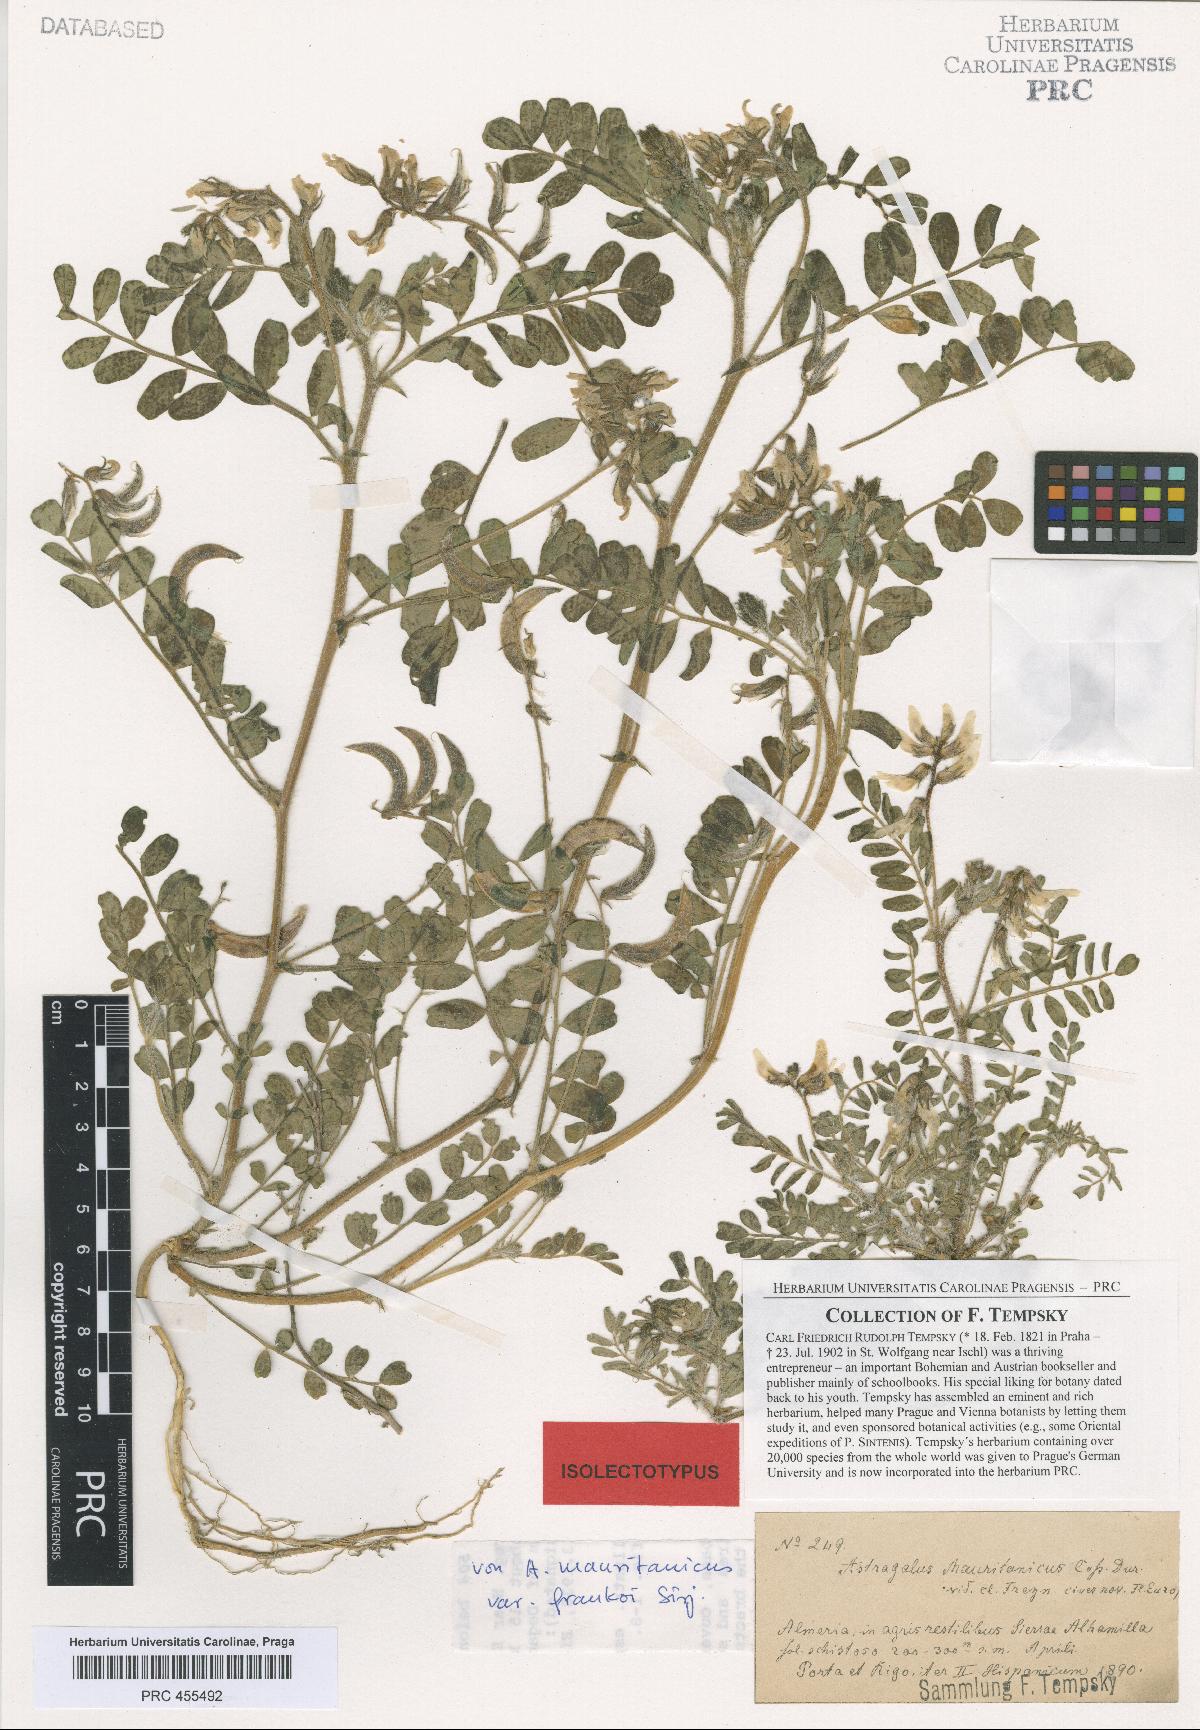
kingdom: Plantae
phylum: Tracheophyta
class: Magnoliopsida
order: Fabales
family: Fabaceae
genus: Astragalus
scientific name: Astragalus longidentatus
